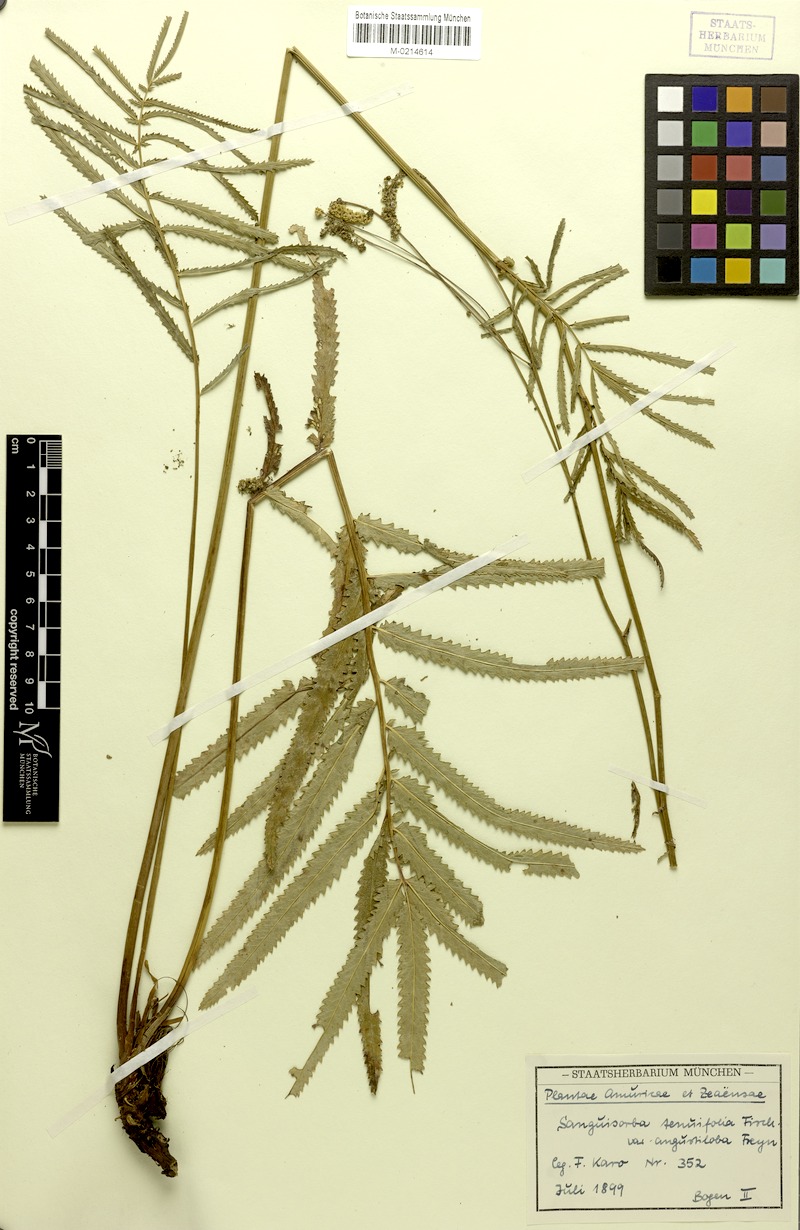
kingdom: Plantae
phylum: Tracheophyta
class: Magnoliopsida
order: Rosales
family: Rosaceae
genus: Poterium
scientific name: Poterium tenuifolium
